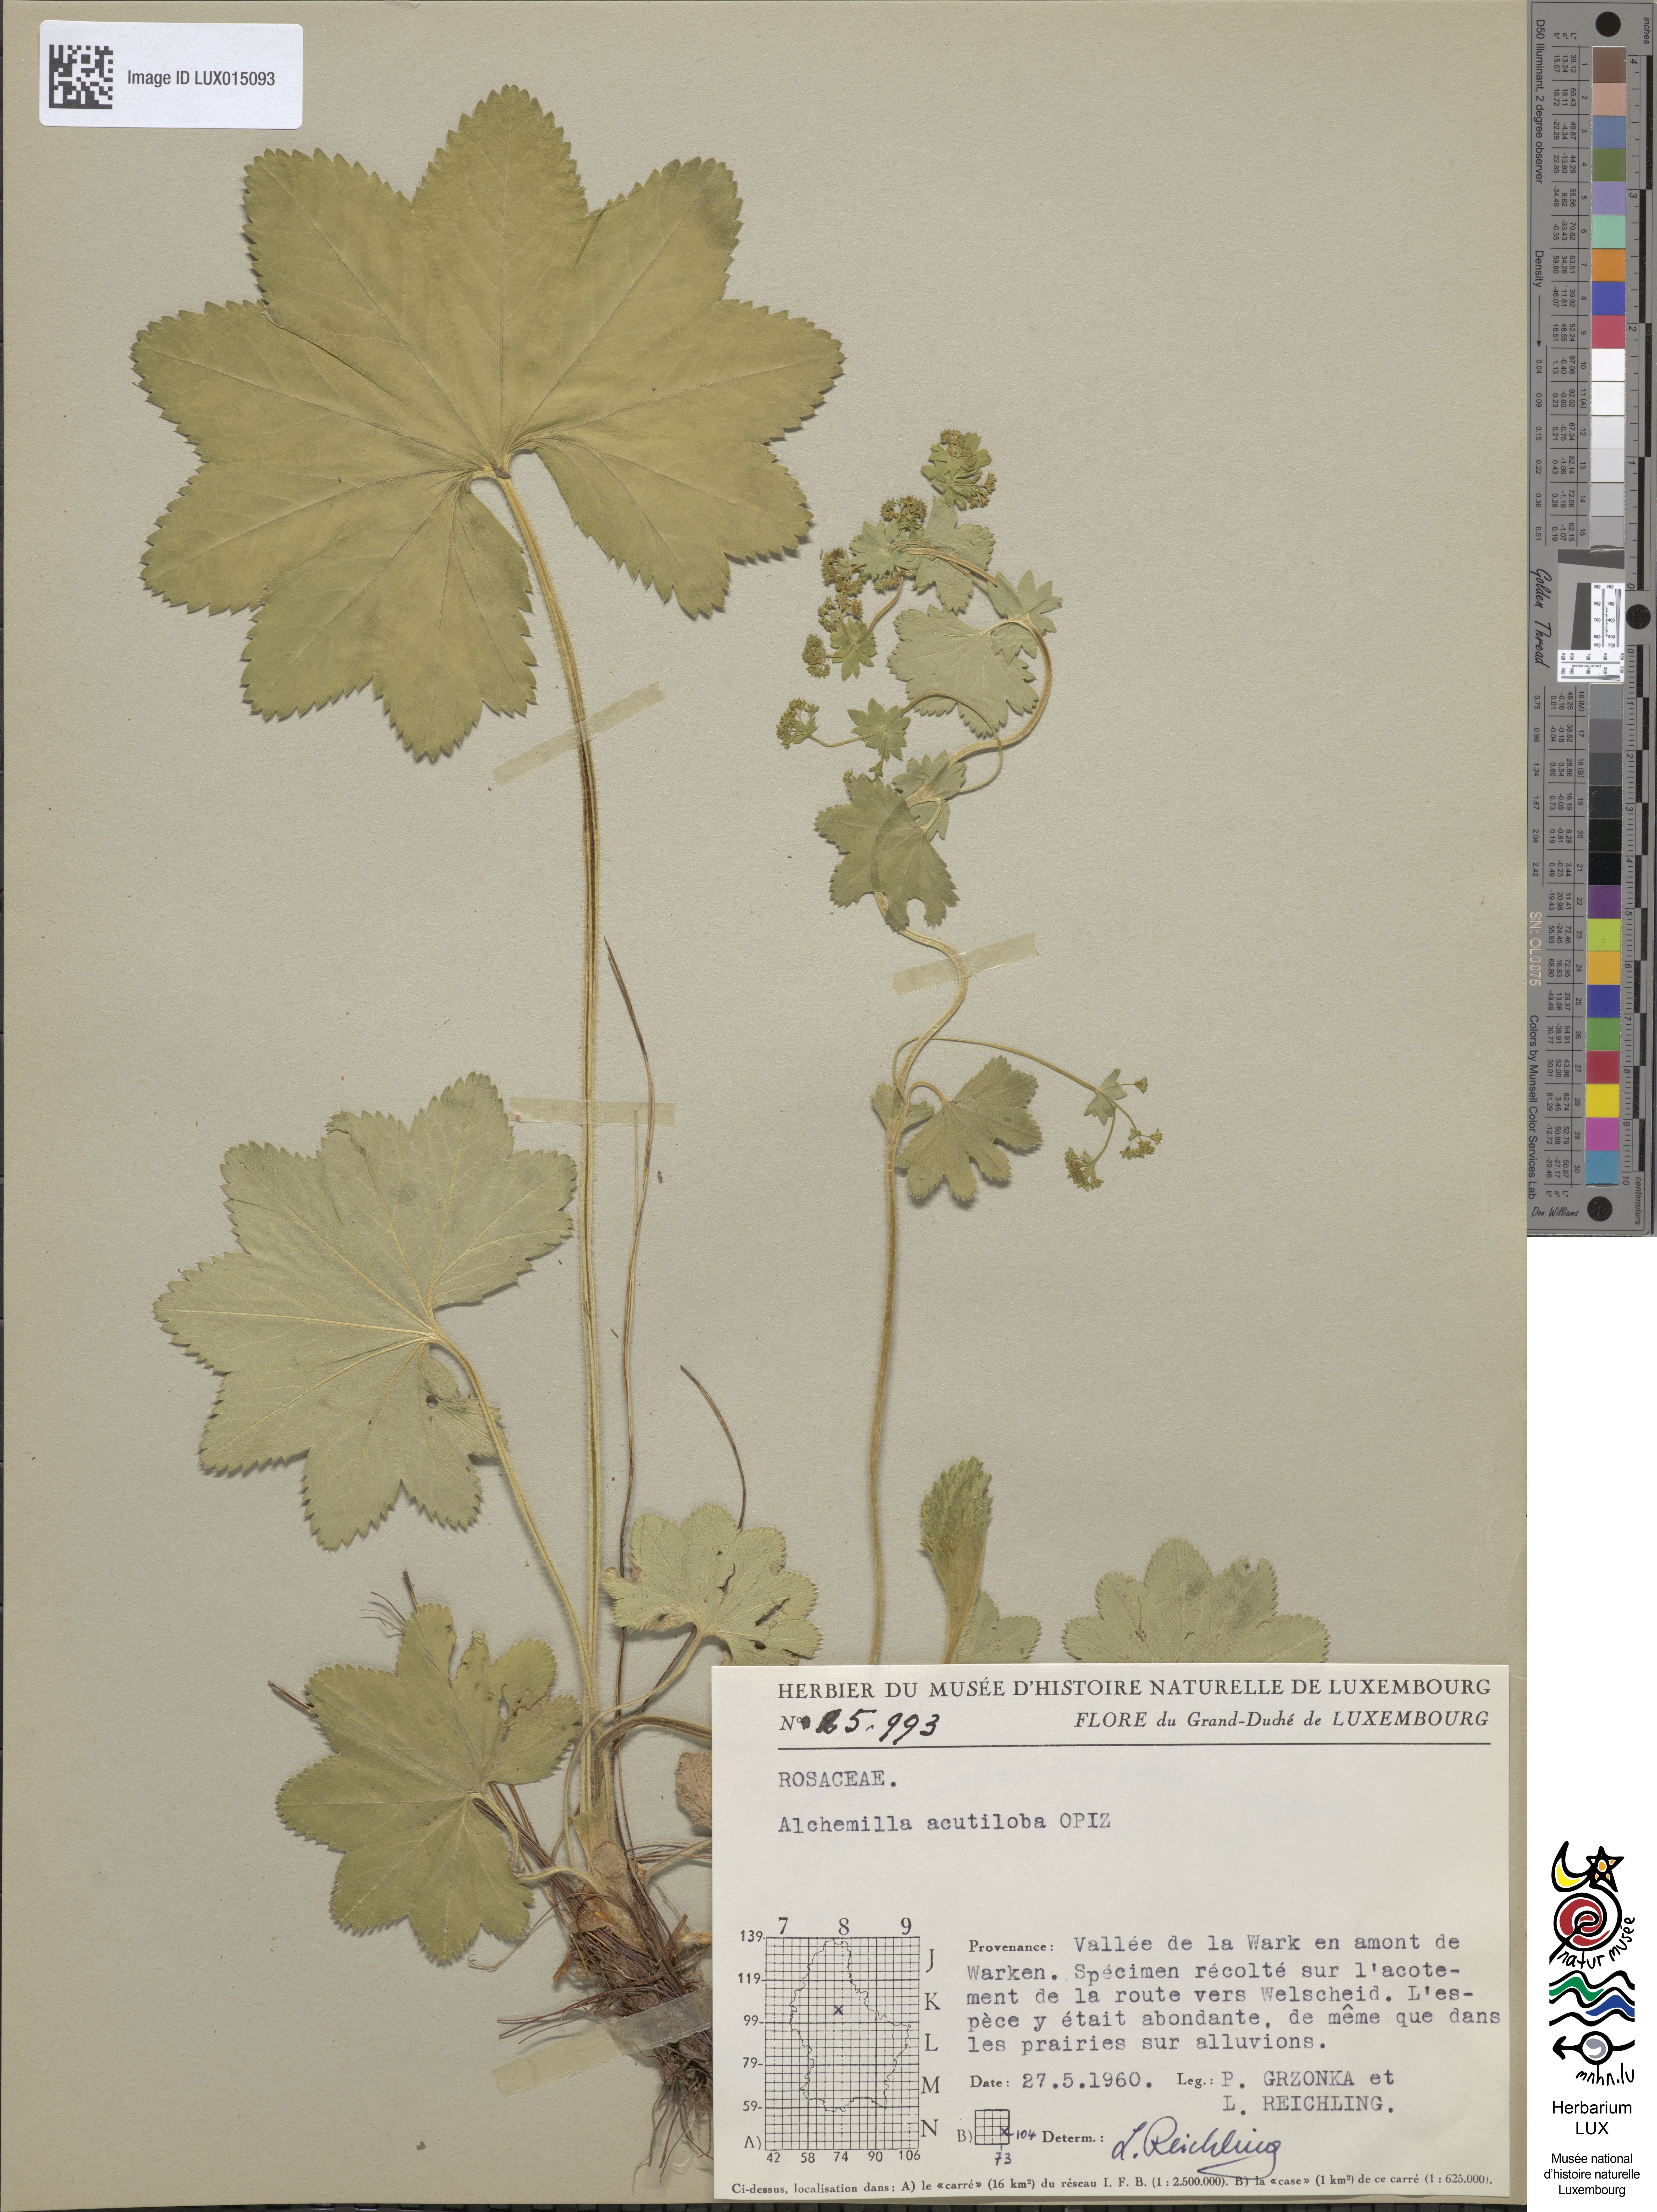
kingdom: Plantae
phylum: Tracheophyta
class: Magnoliopsida
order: Rosales
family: Rosaceae
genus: Alchemilla
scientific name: Alchemilla vulgaris
